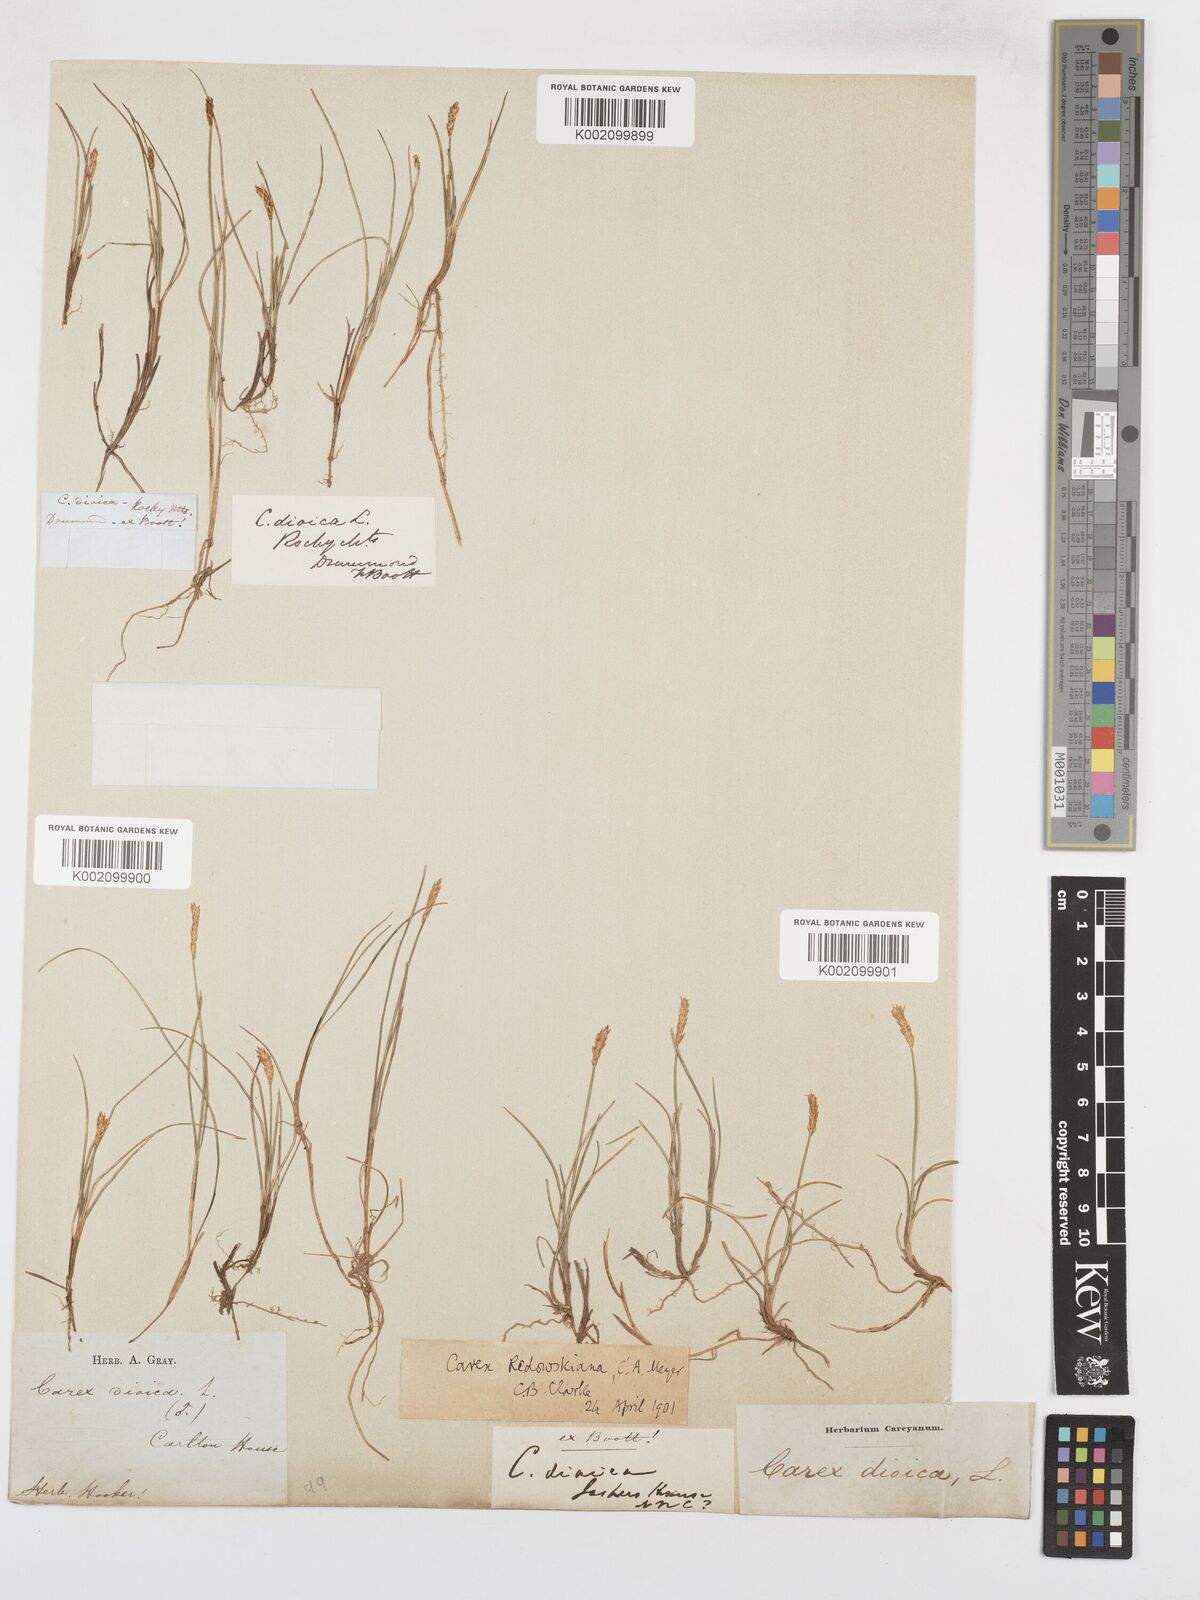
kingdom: Plantae
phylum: Tracheophyta
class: Liliopsida
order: Poales
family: Cyperaceae
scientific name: Cyperaceae
